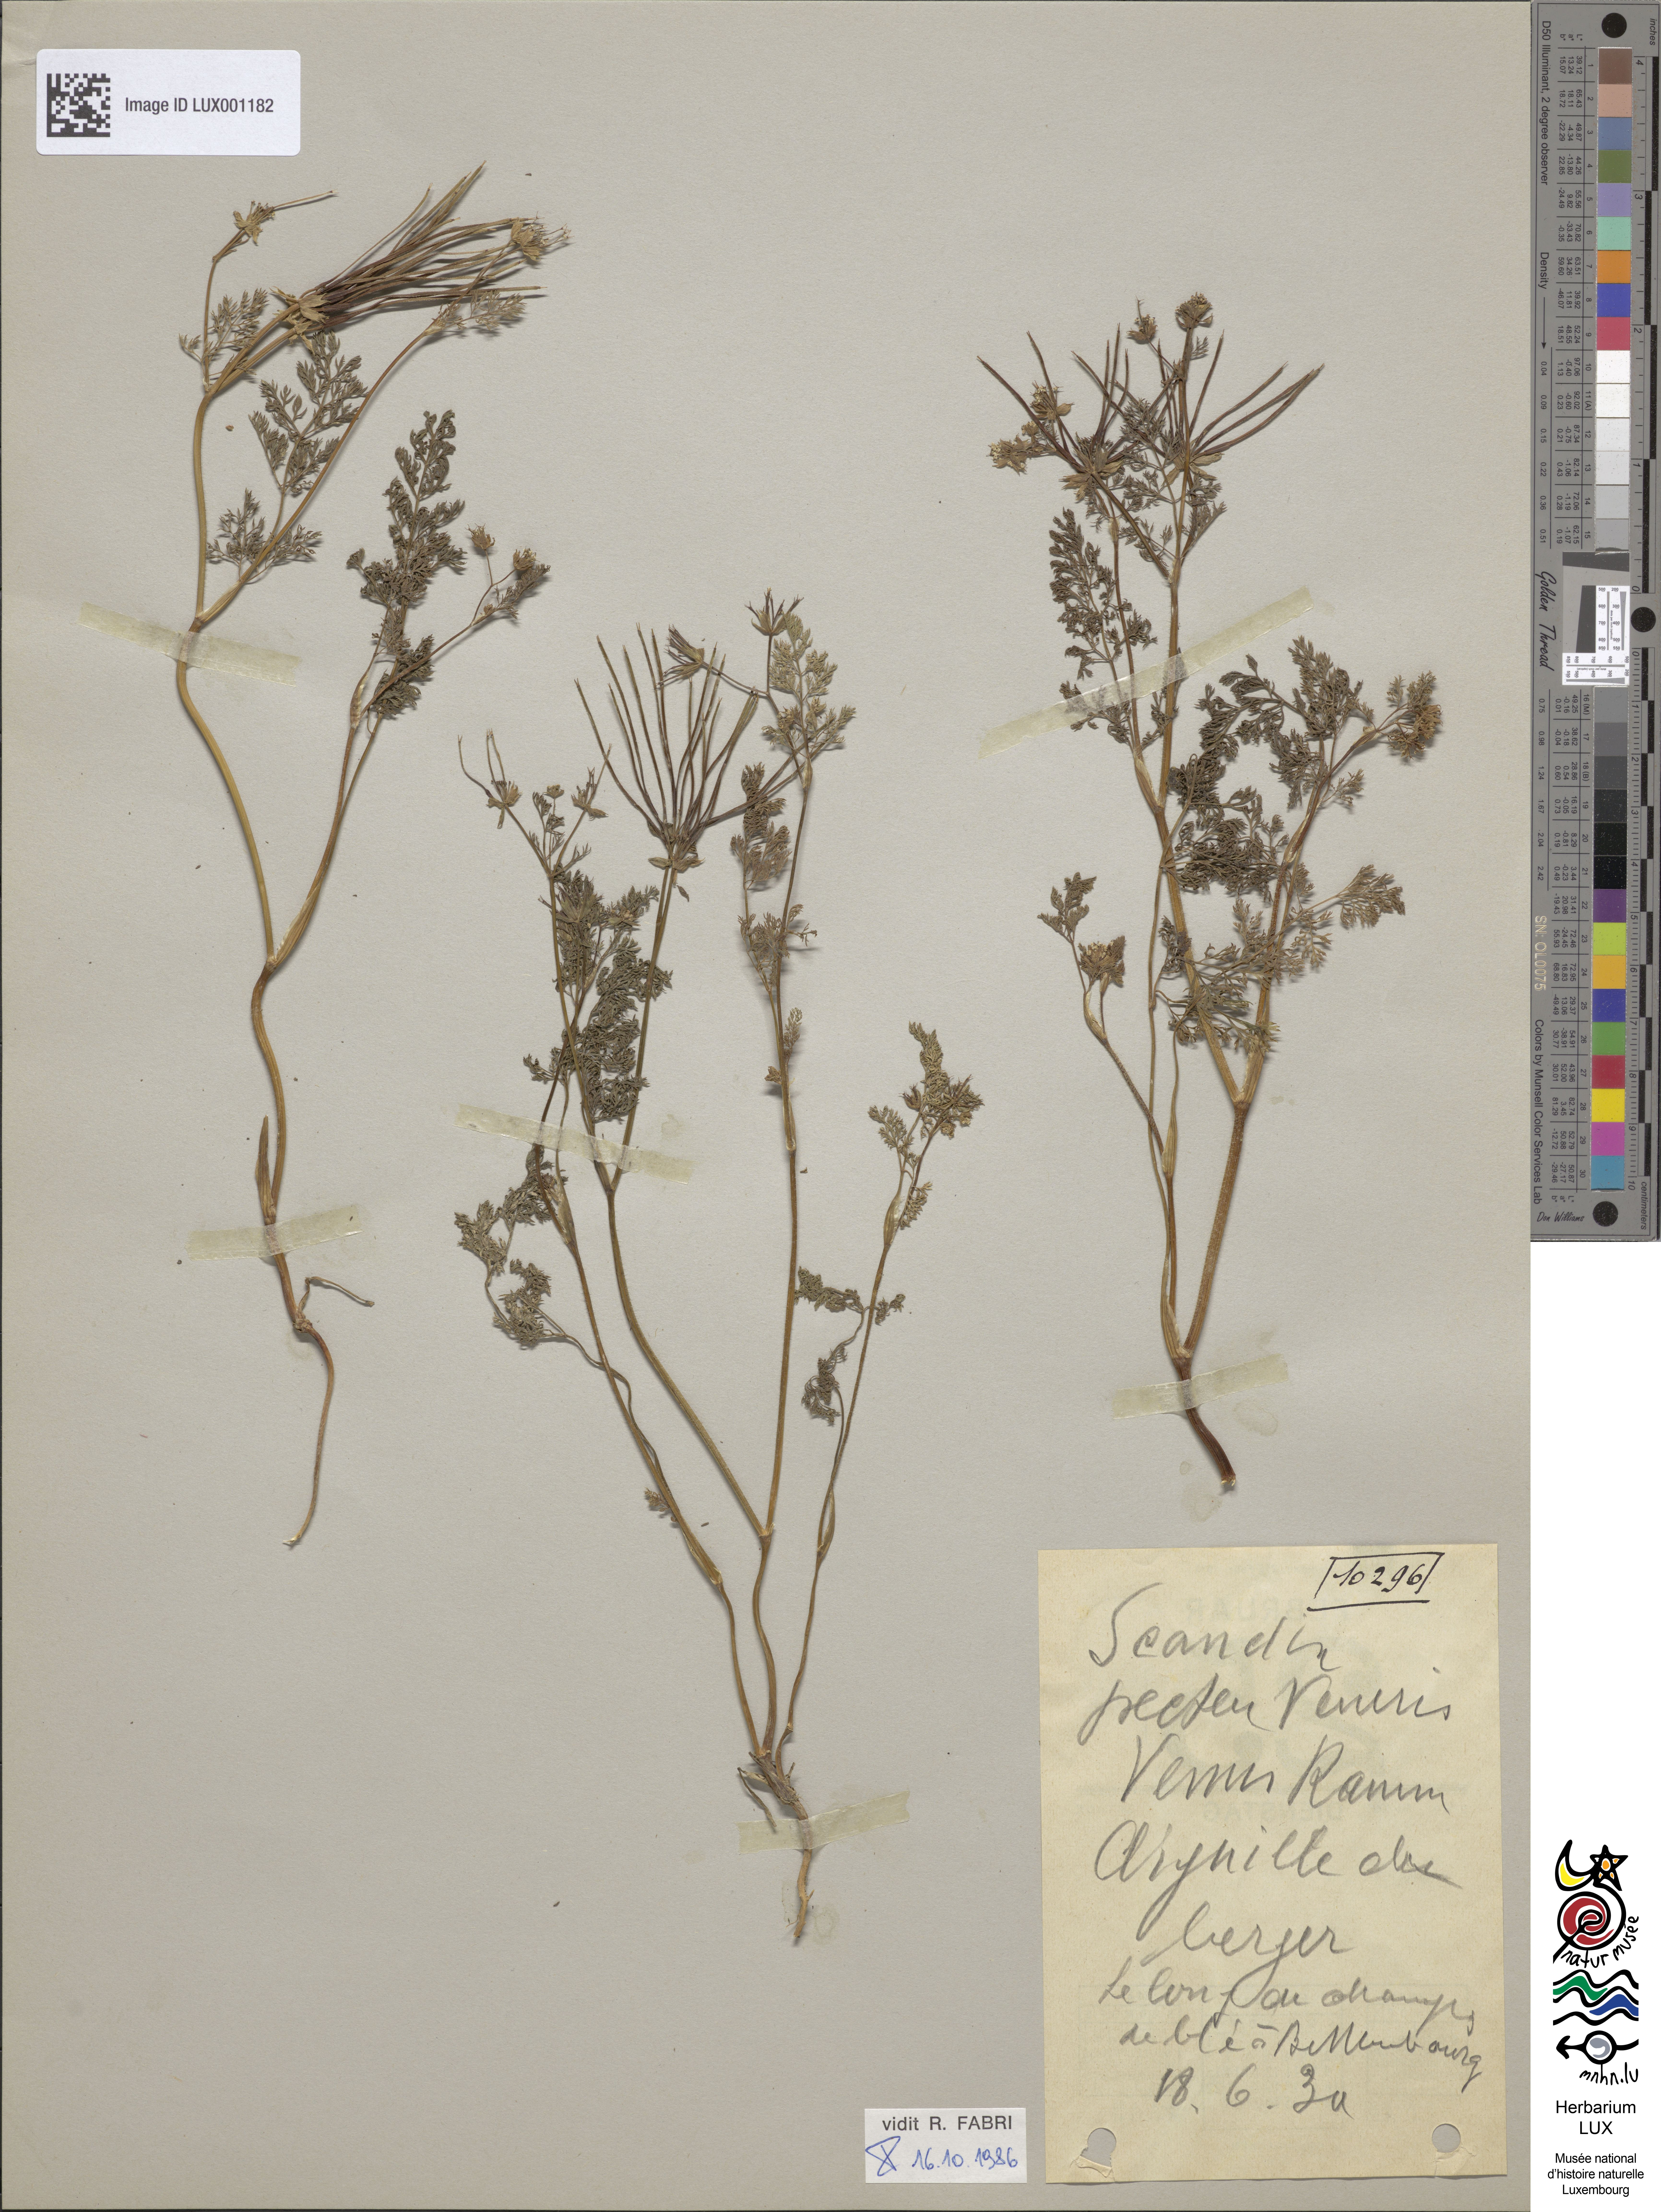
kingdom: Plantae
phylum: Tracheophyta
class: Magnoliopsida
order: Apiales
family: Apiaceae
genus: Scandix
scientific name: Scandix pecten-veneris
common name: Shepherd's-needle
